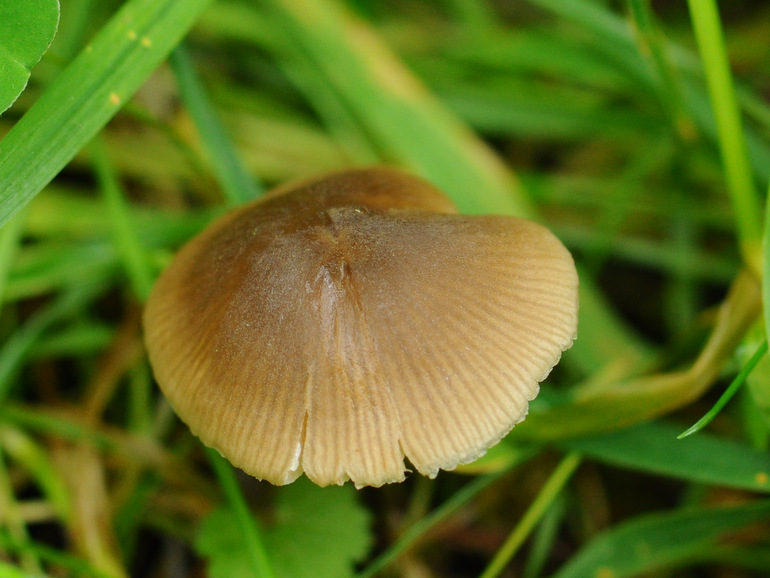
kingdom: Fungi
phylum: Basidiomycota
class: Agaricomycetes
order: Agaricales
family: Entolomataceae
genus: Entoloma
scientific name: Entoloma conferendum
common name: stjernesporet rødblad
